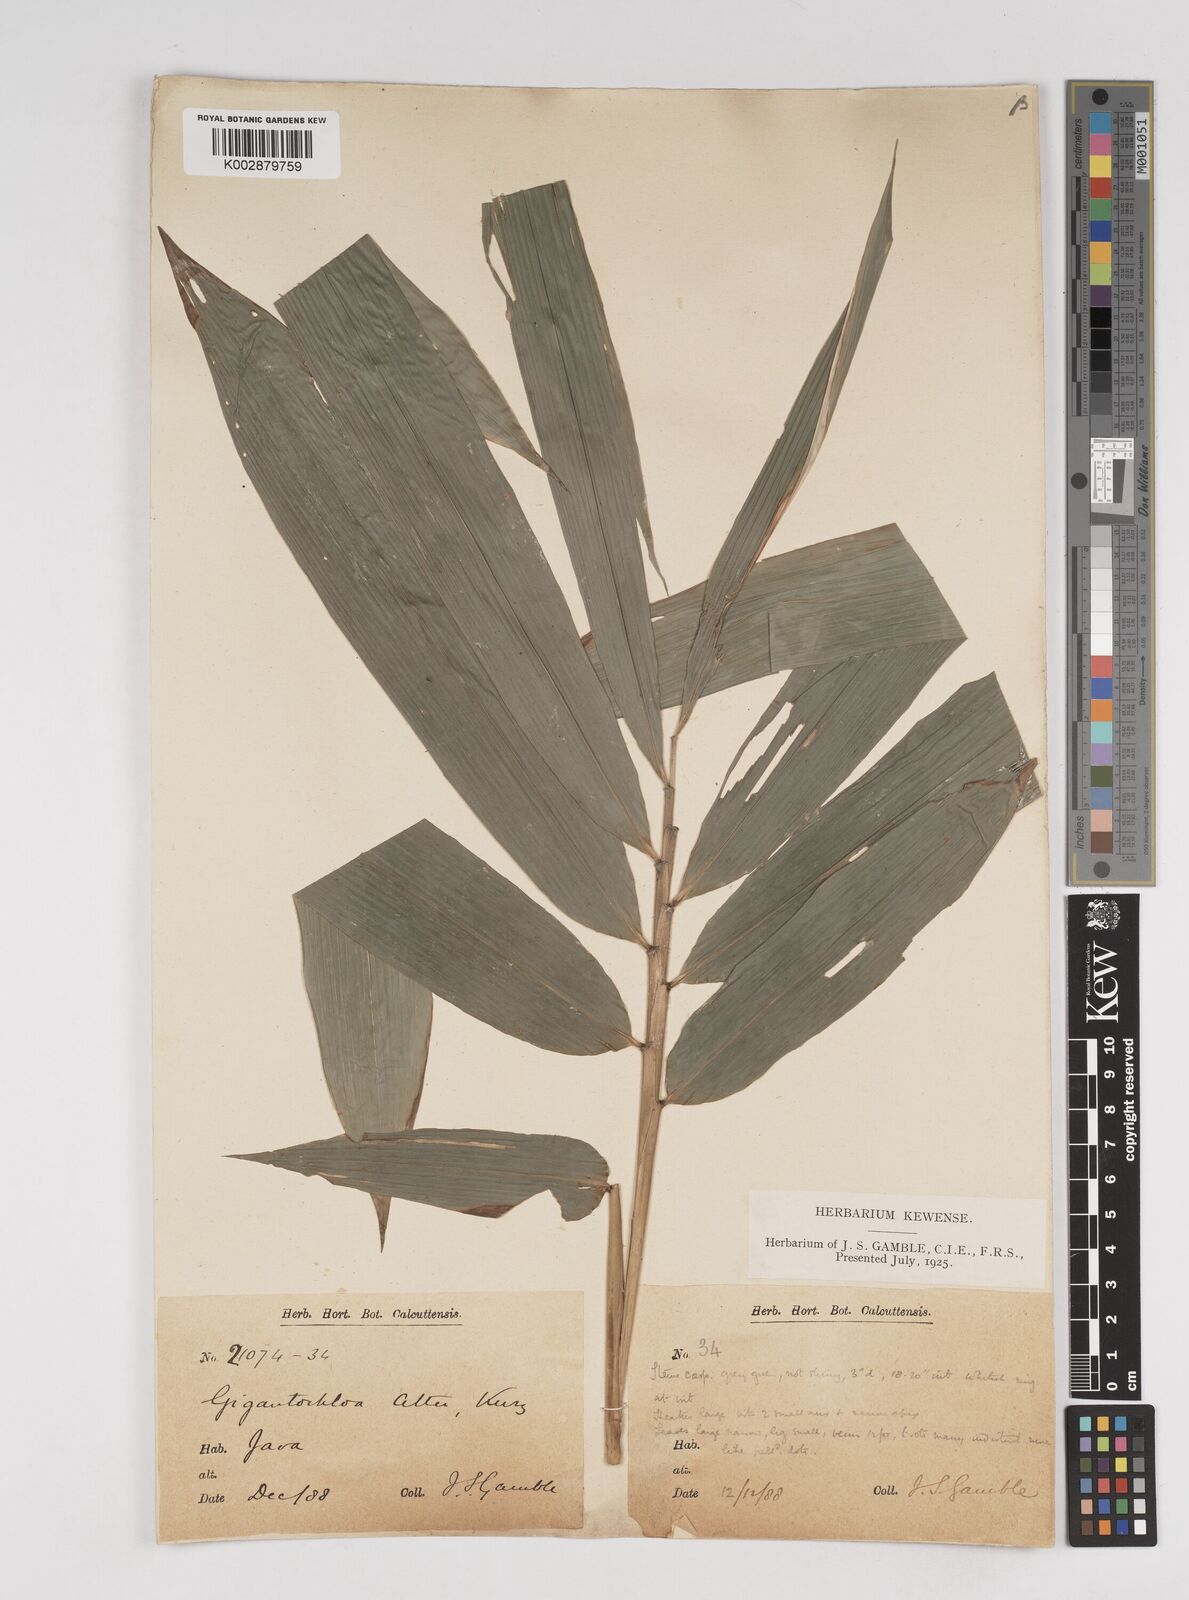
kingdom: Plantae
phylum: Tracheophyta
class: Liliopsida
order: Poales
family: Poaceae
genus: Gigantochloa
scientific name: Gigantochloa atter
